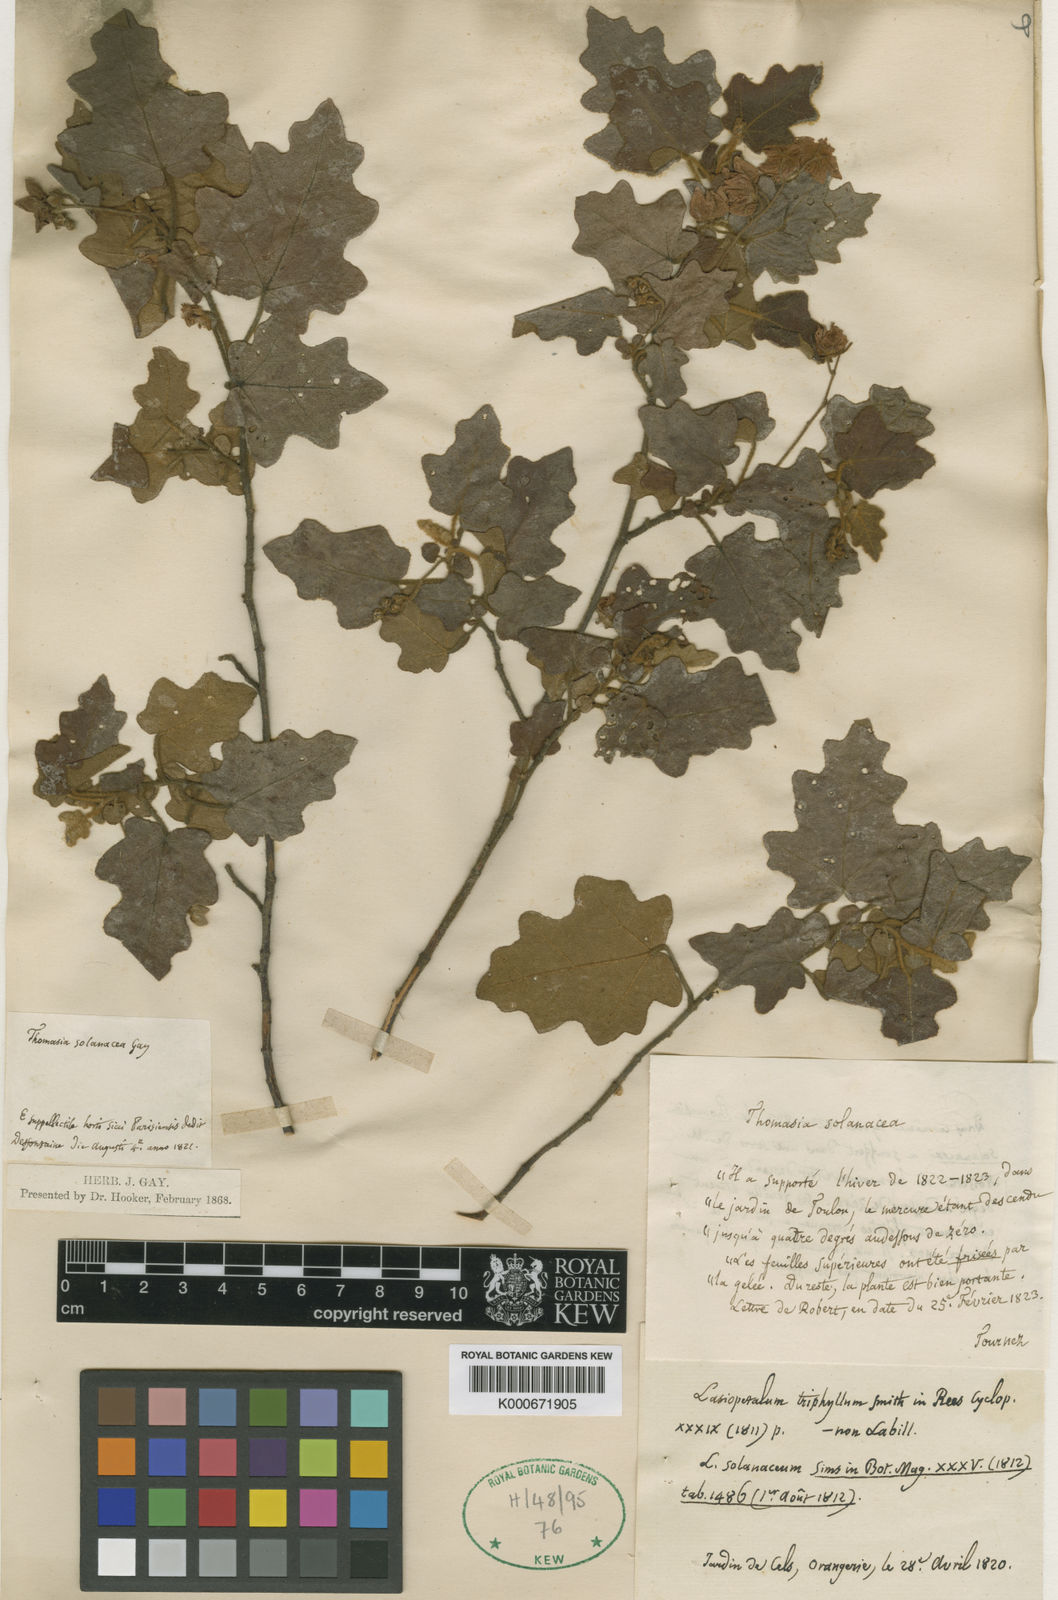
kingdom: Plantae
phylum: Tracheophyta
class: Magnoliopsida
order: Malvales
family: Malvaceae
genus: Thomasia
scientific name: Thomasia solanacea
